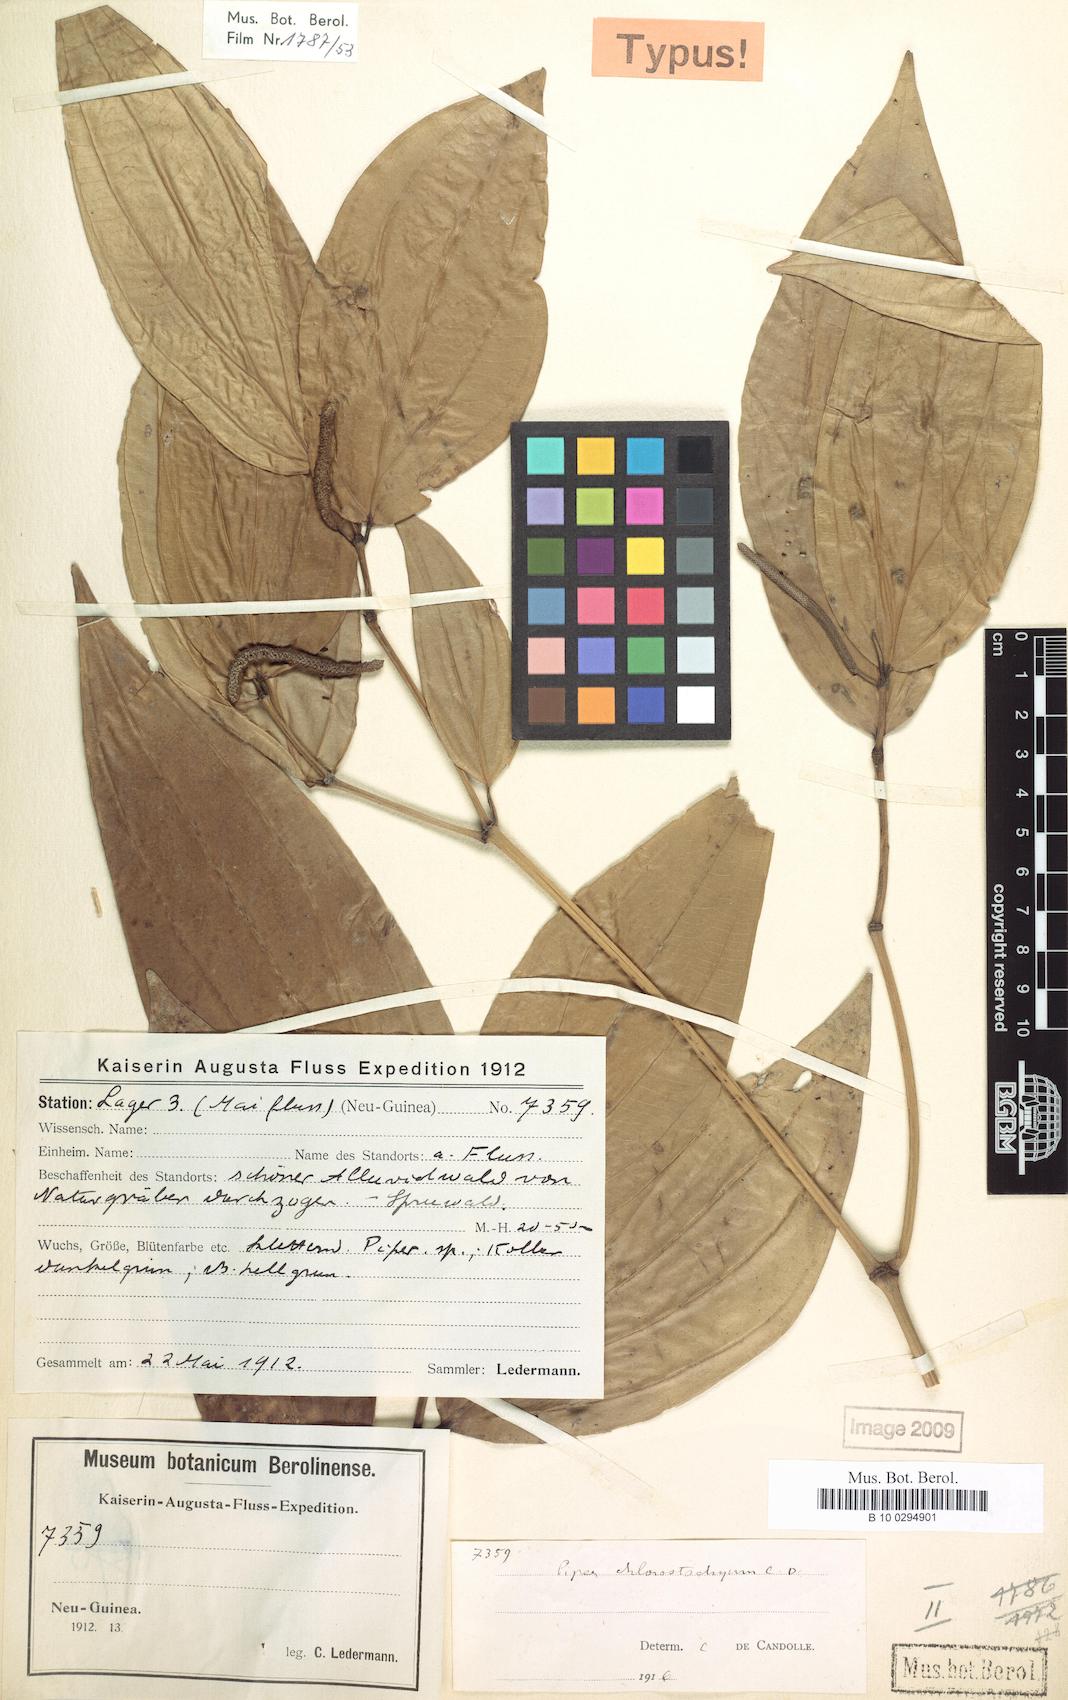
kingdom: Plantae
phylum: Tracheophyta
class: Magnoliopsida
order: Piperales
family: Piperaceae
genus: Piper
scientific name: Piper chlorostachyum
